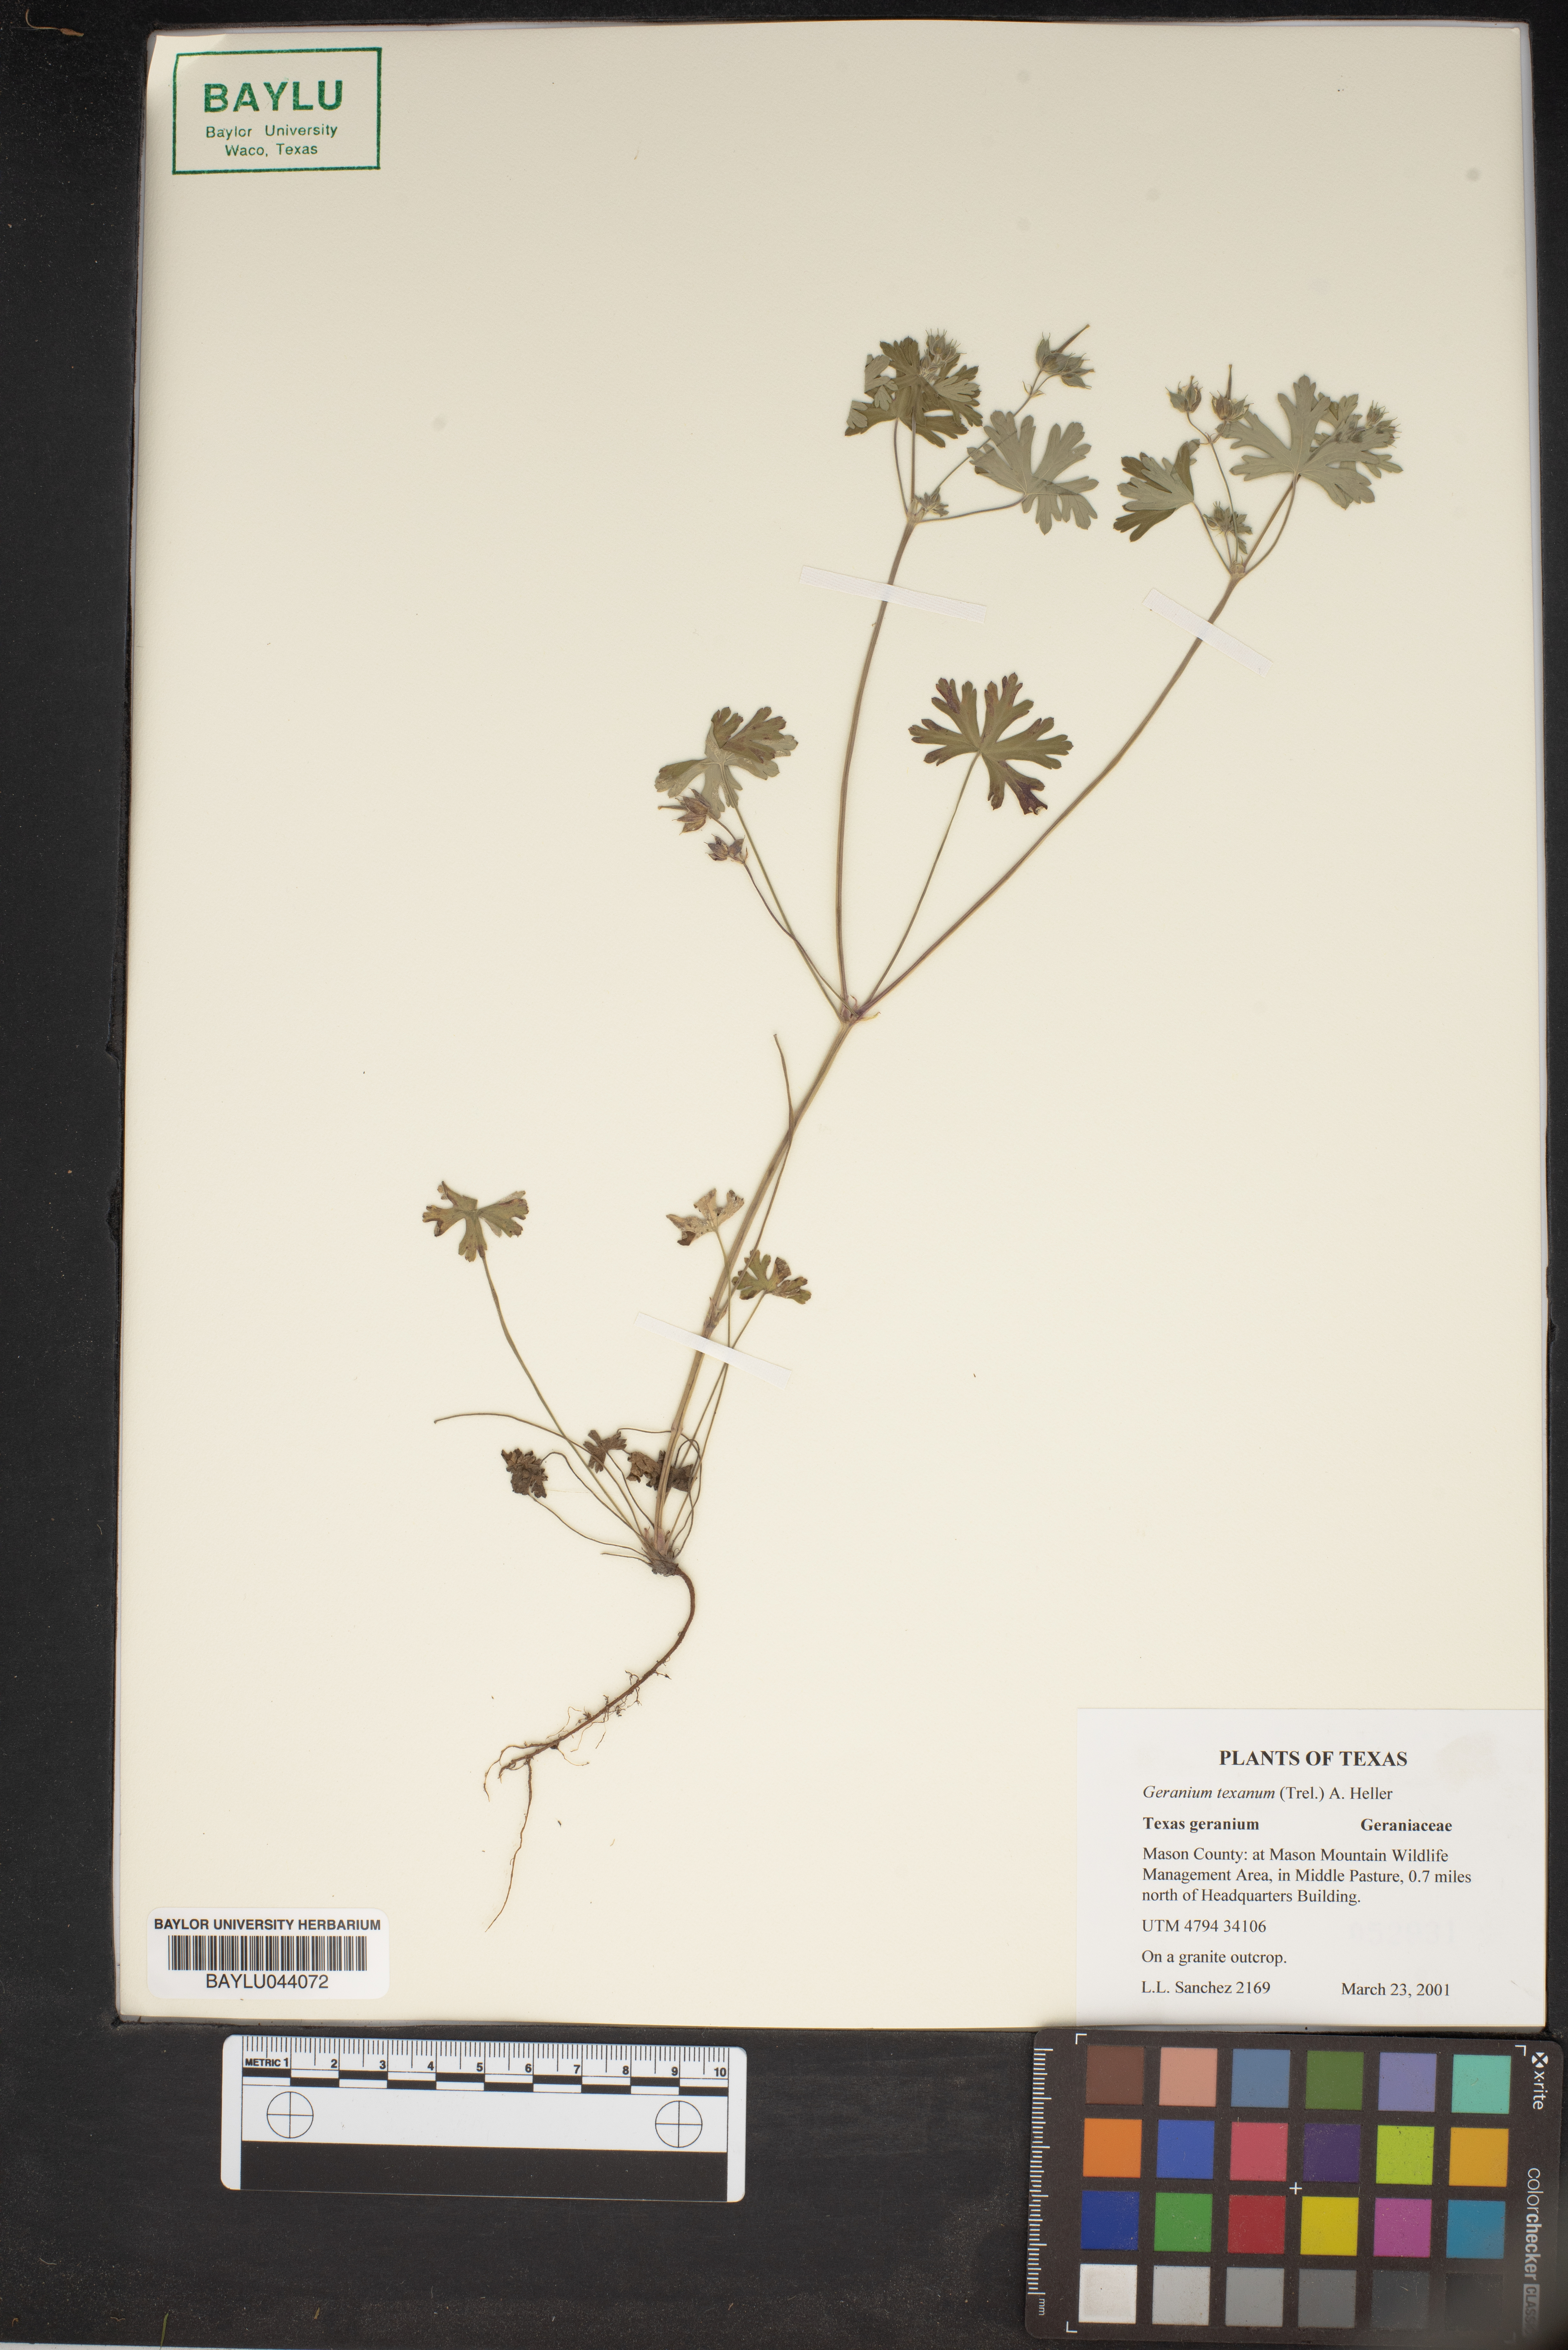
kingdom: Plantae
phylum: Tracheophyta
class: Magnoliopsida
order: Geraniales
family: Geraniaceae
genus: Geranium
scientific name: Geranium texanum
